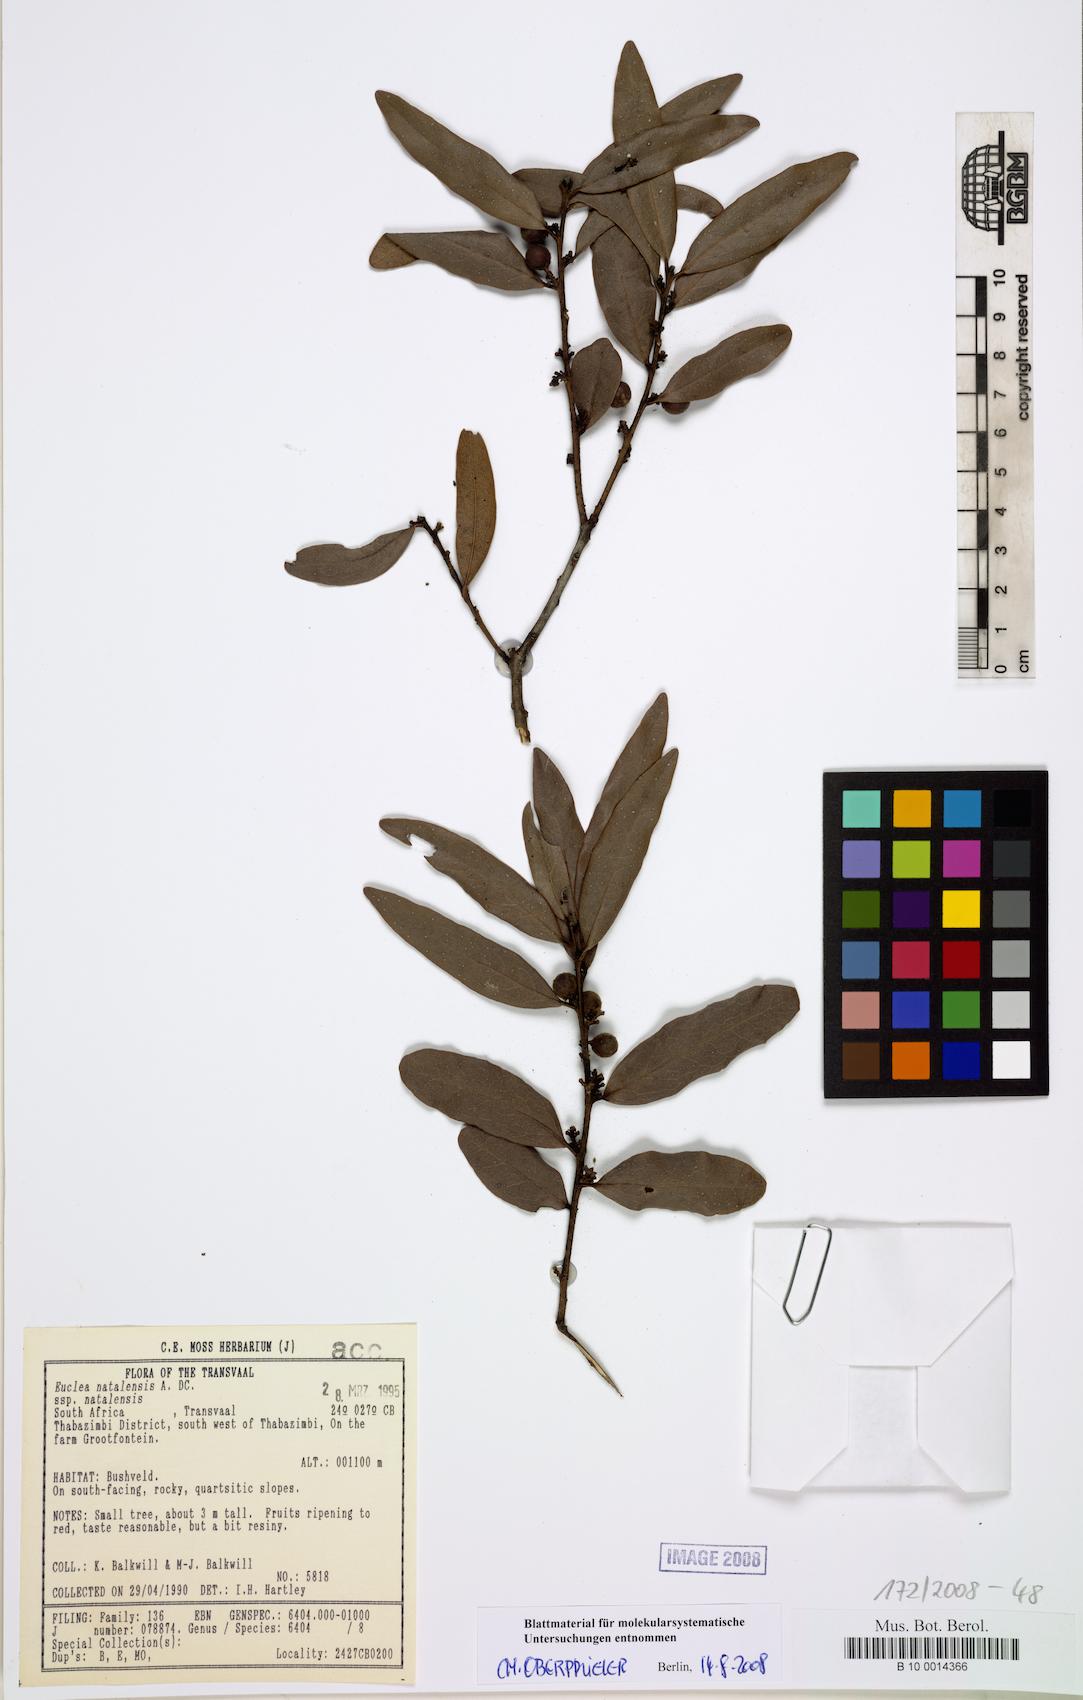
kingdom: Plantae
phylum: Tracheophyta
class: Magnoliopsida
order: Ericales
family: Ebenaceae
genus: Euclea
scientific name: Euclea natalensis
